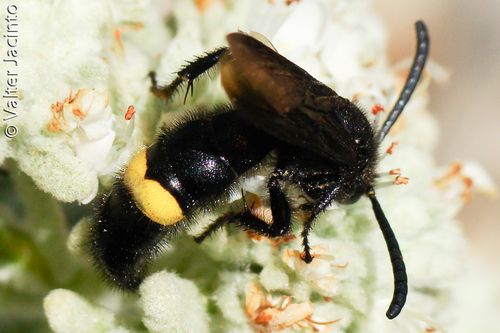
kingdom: Animalia
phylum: Arthropoda
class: Insecta
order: Hymenoptera
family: Scoliidae
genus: Scolia
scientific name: Scolia hirta
